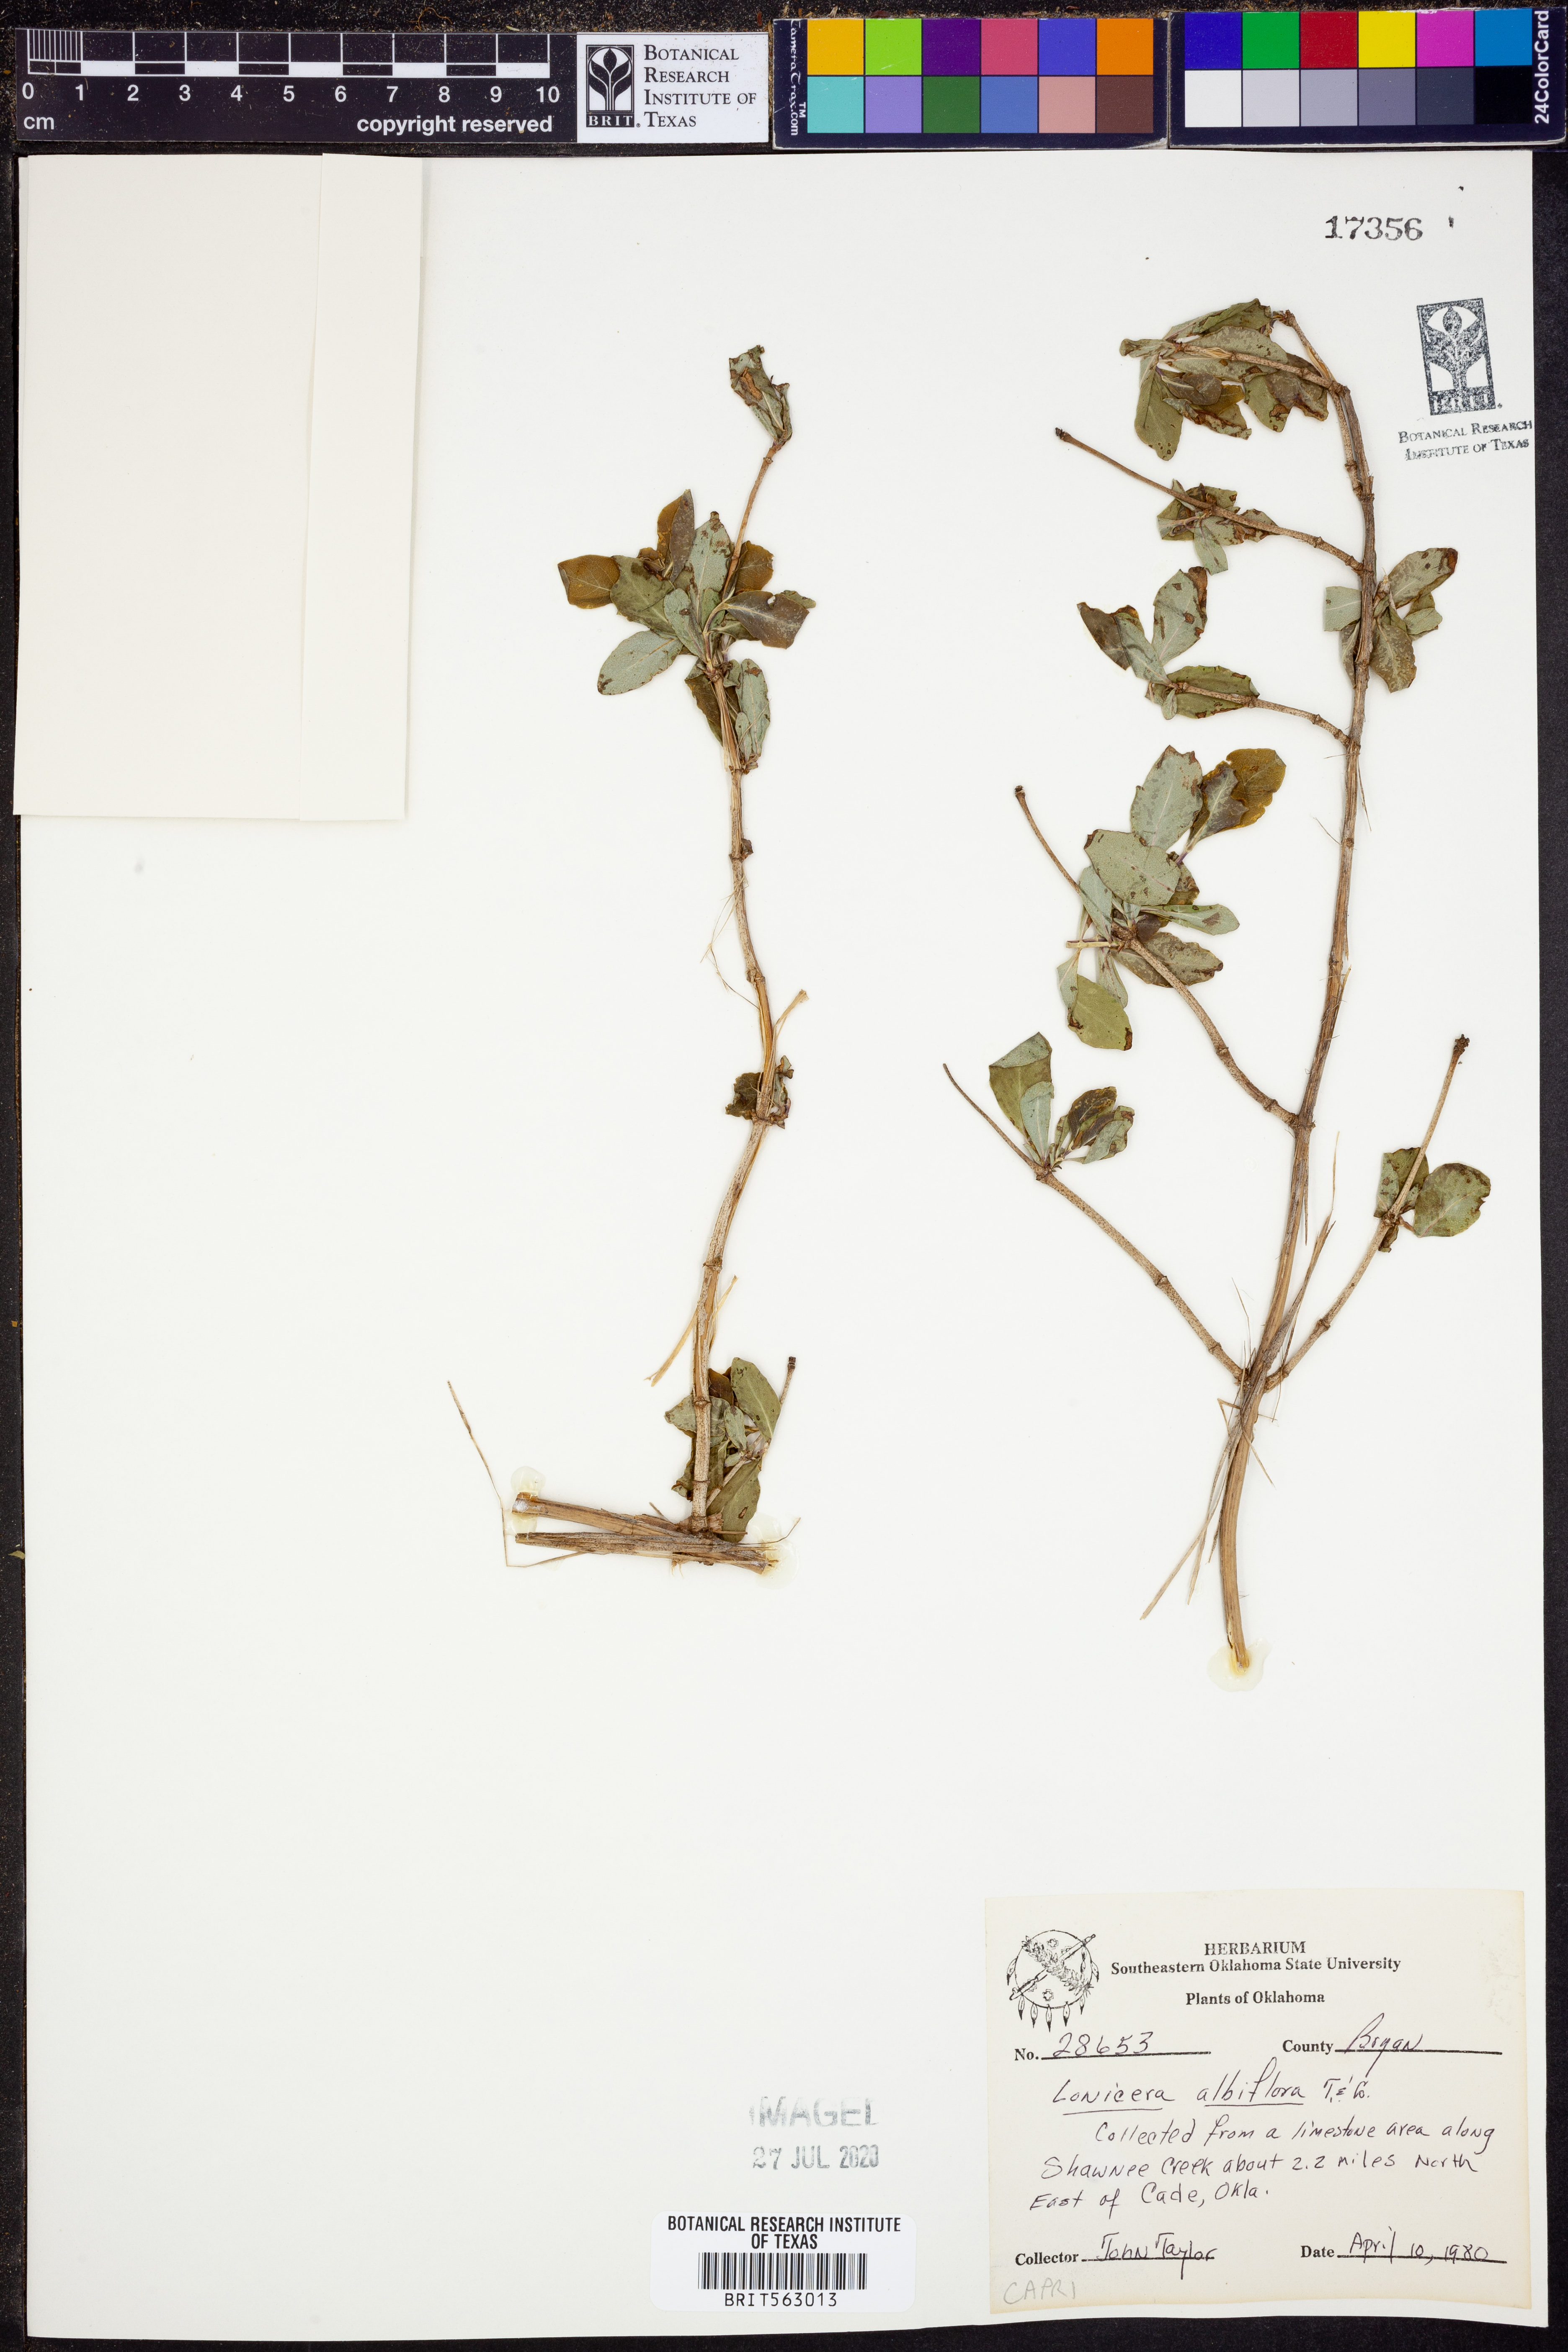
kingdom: Plantae
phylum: Tracheophyta
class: Magnoliopsida
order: Dipsacales
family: Caprifoliaceae
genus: Lonicera
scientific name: Lonicera albiflora
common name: White honeysuckle
